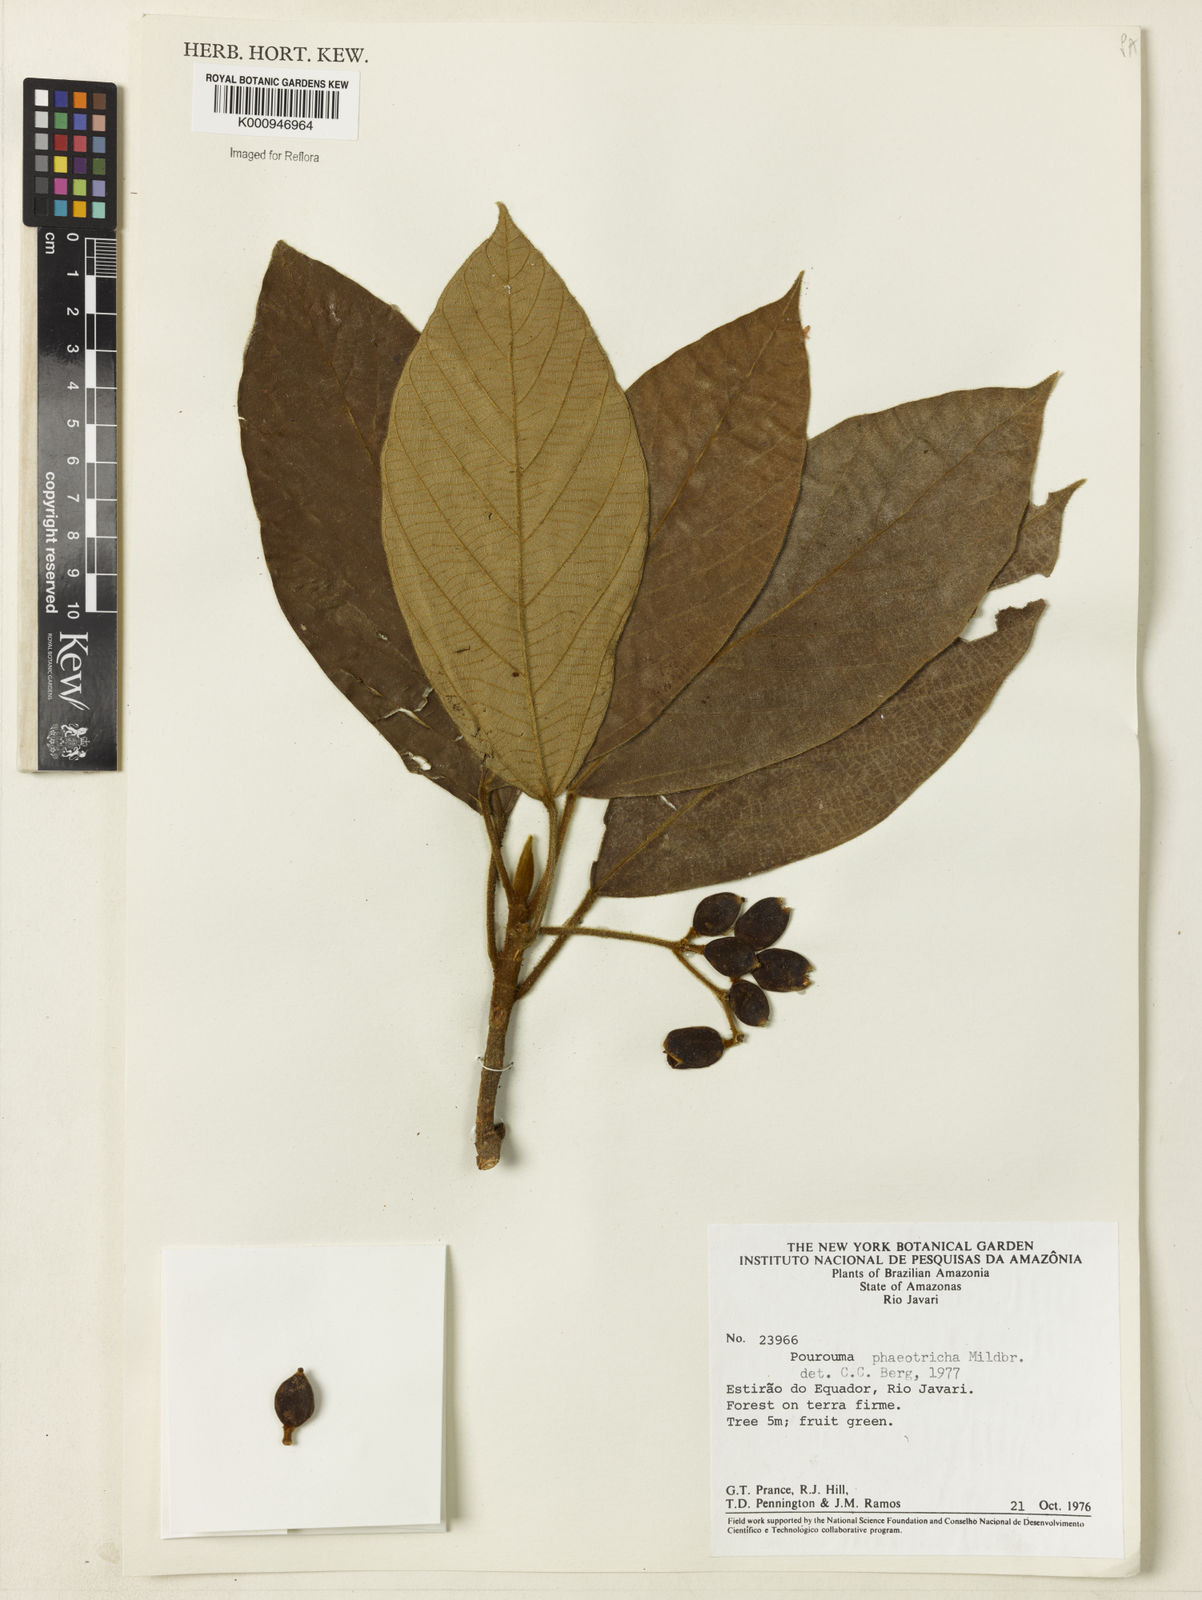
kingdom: Plantae
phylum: Tracheophyta
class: Magnoliopsida
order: Rosales
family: Urticaceae
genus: Pourouma
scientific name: Pourouma phaeotricha
